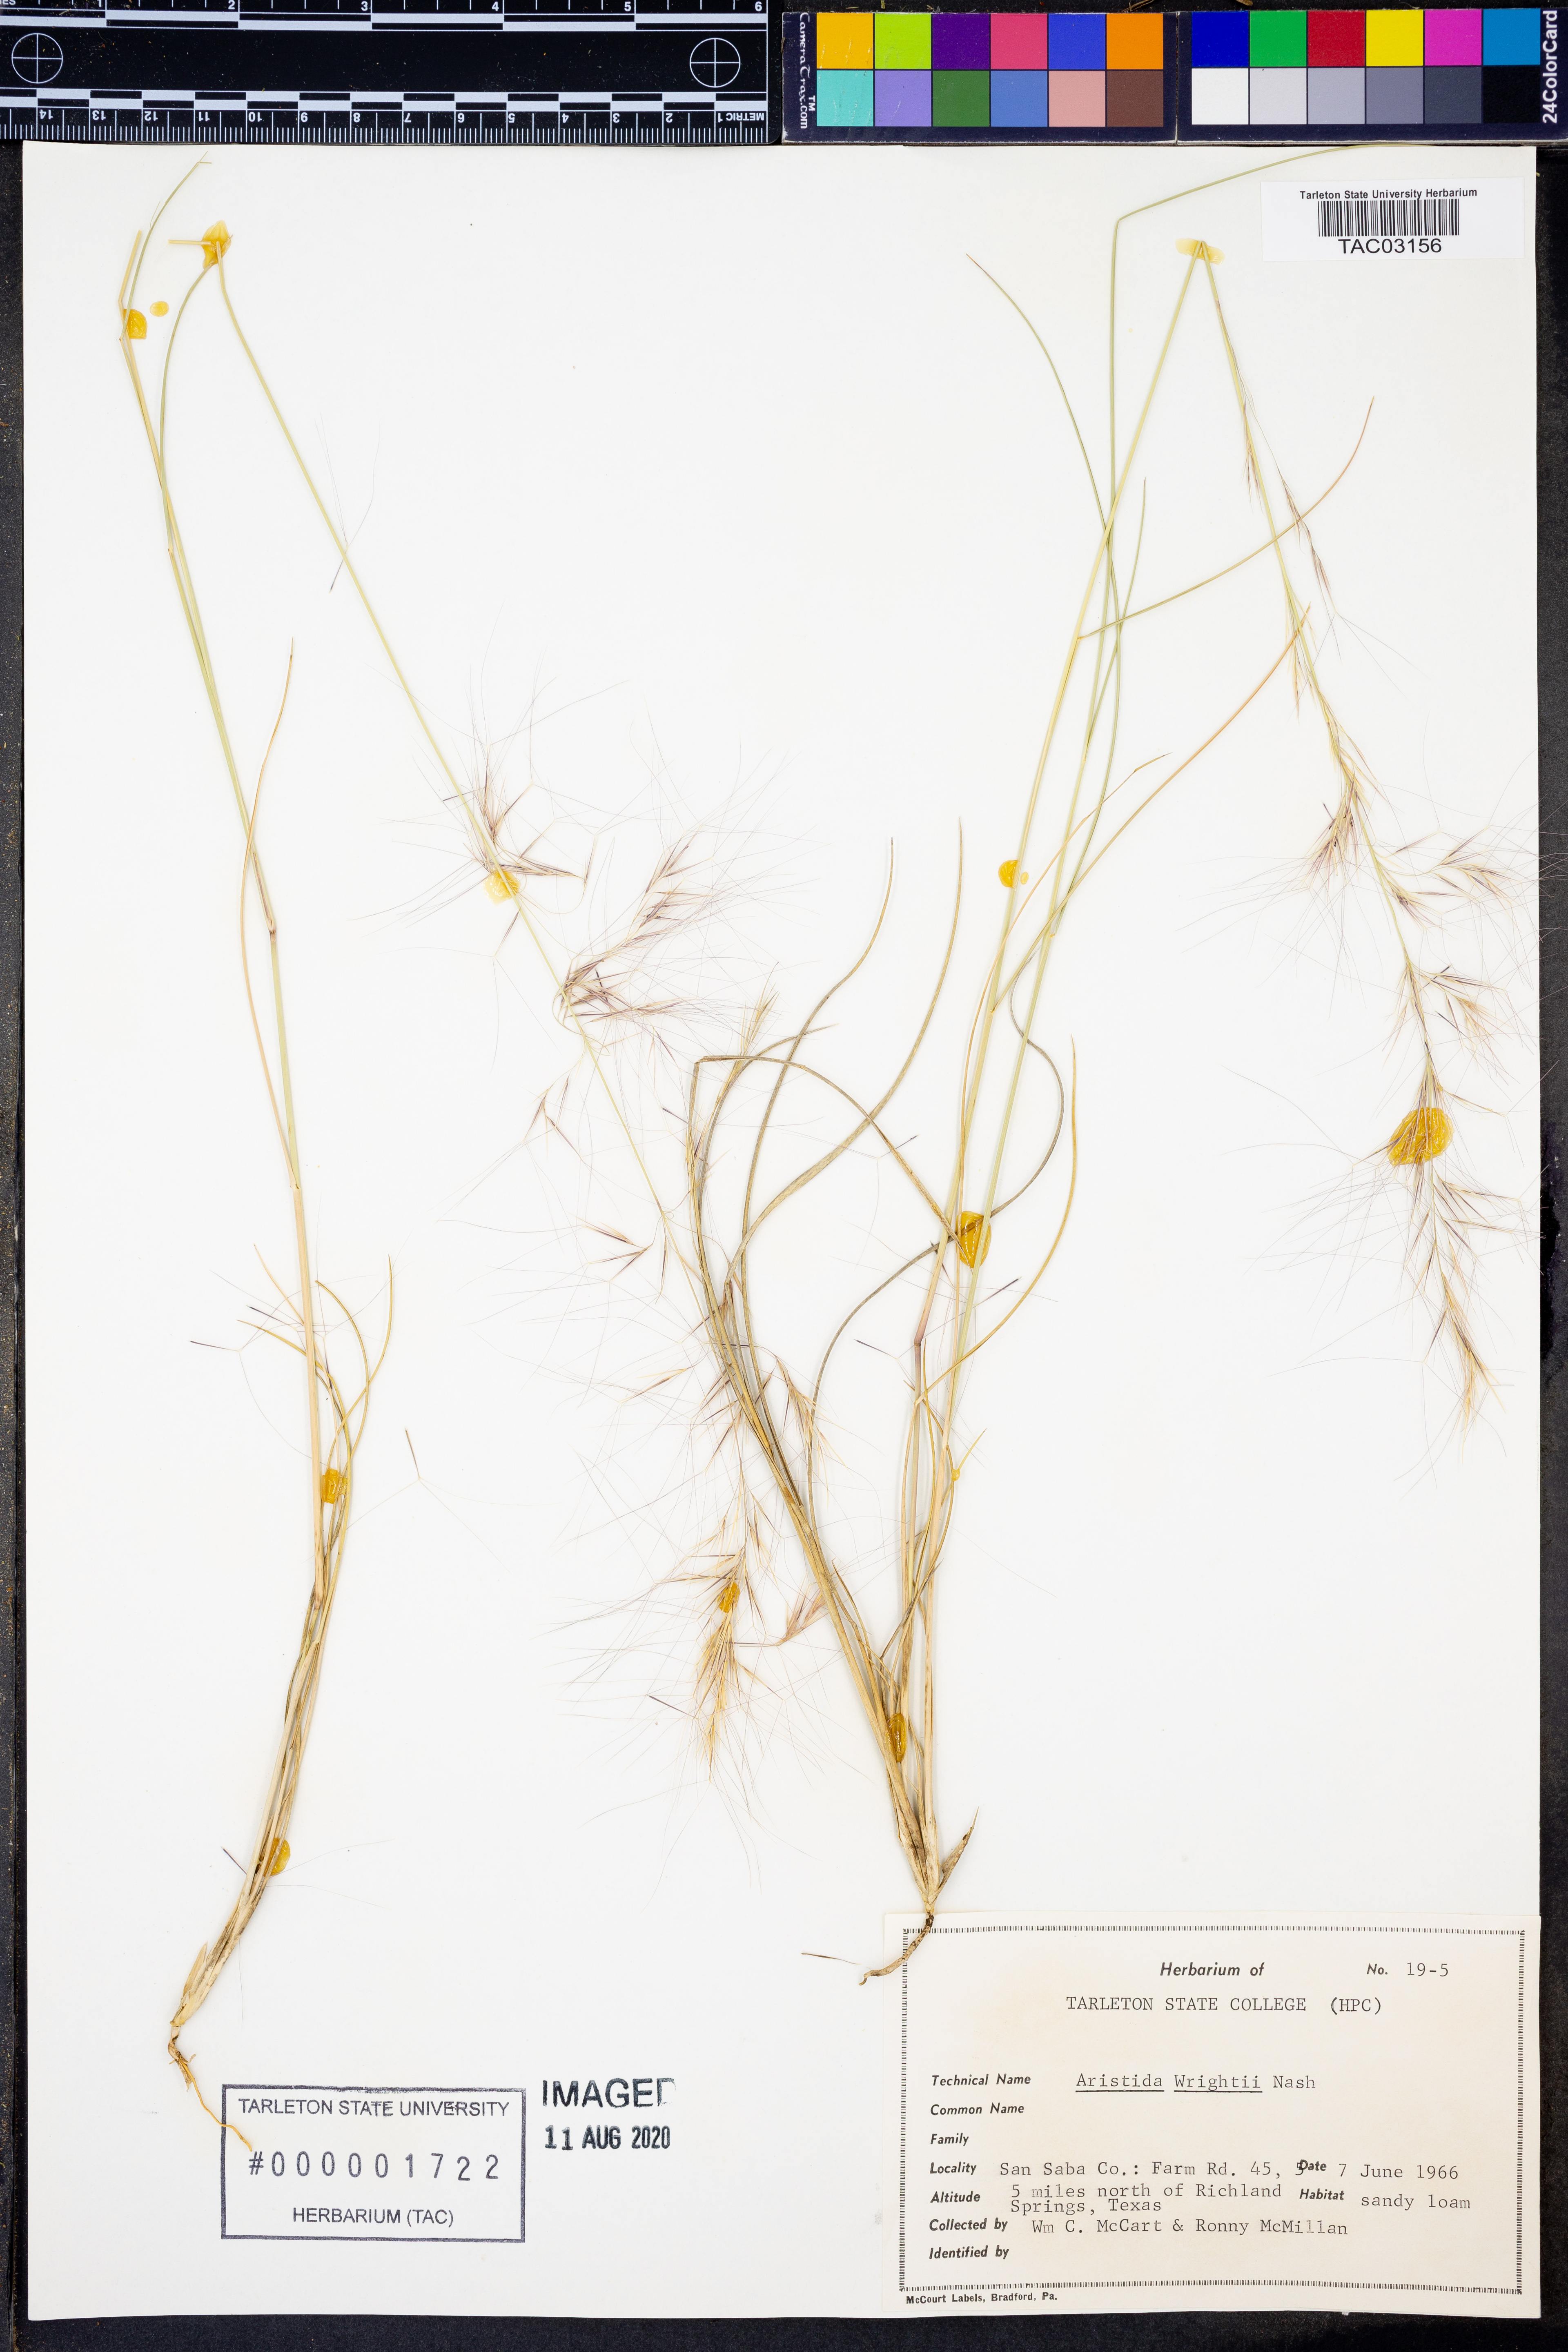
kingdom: Plantae
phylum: Tracheophyta
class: Liliopsida
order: Poales
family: Poaceae
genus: Aristida
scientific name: Aristida wrightii
